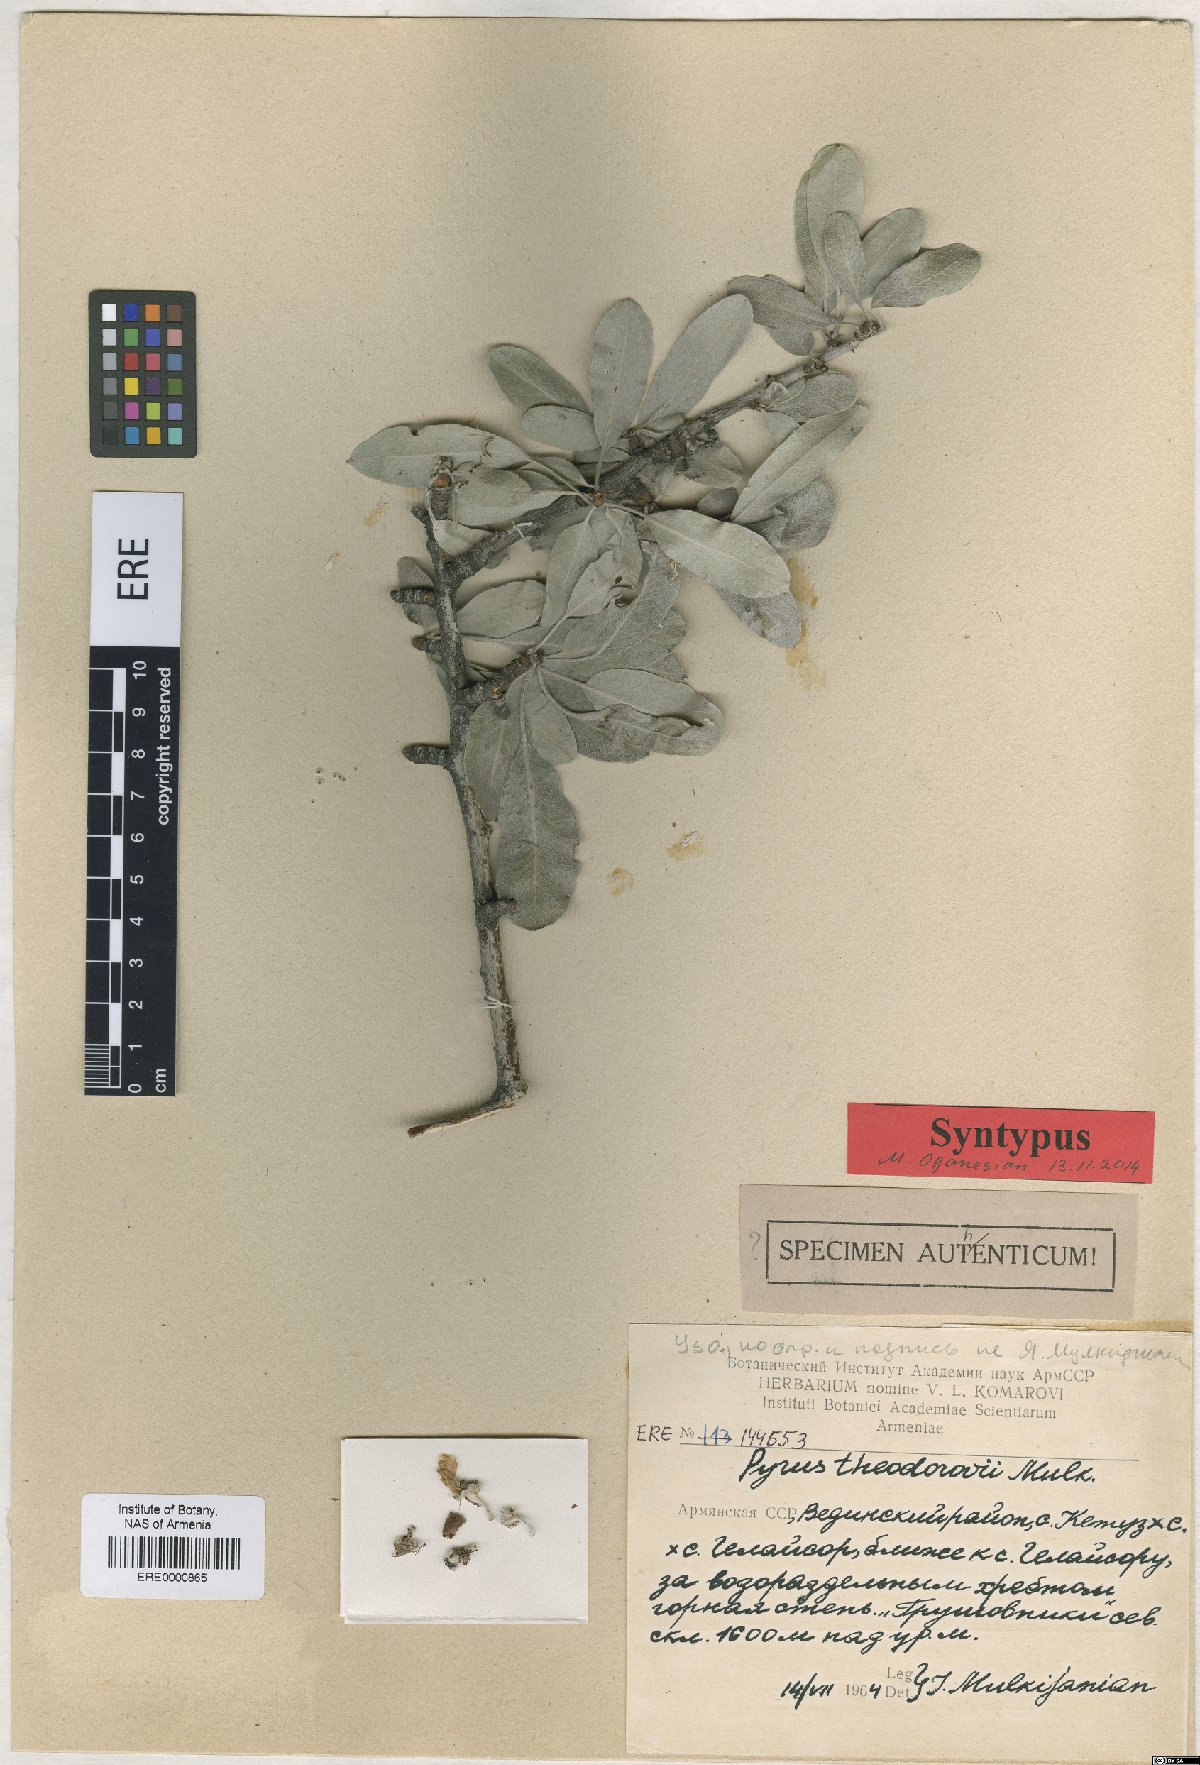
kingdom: Plantae
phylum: Tracheophyta
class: Magnoliopsida
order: Rosales
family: Rosaceae
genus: Pyrus
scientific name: Pyrus theodorovii
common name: Teodorov's pear
